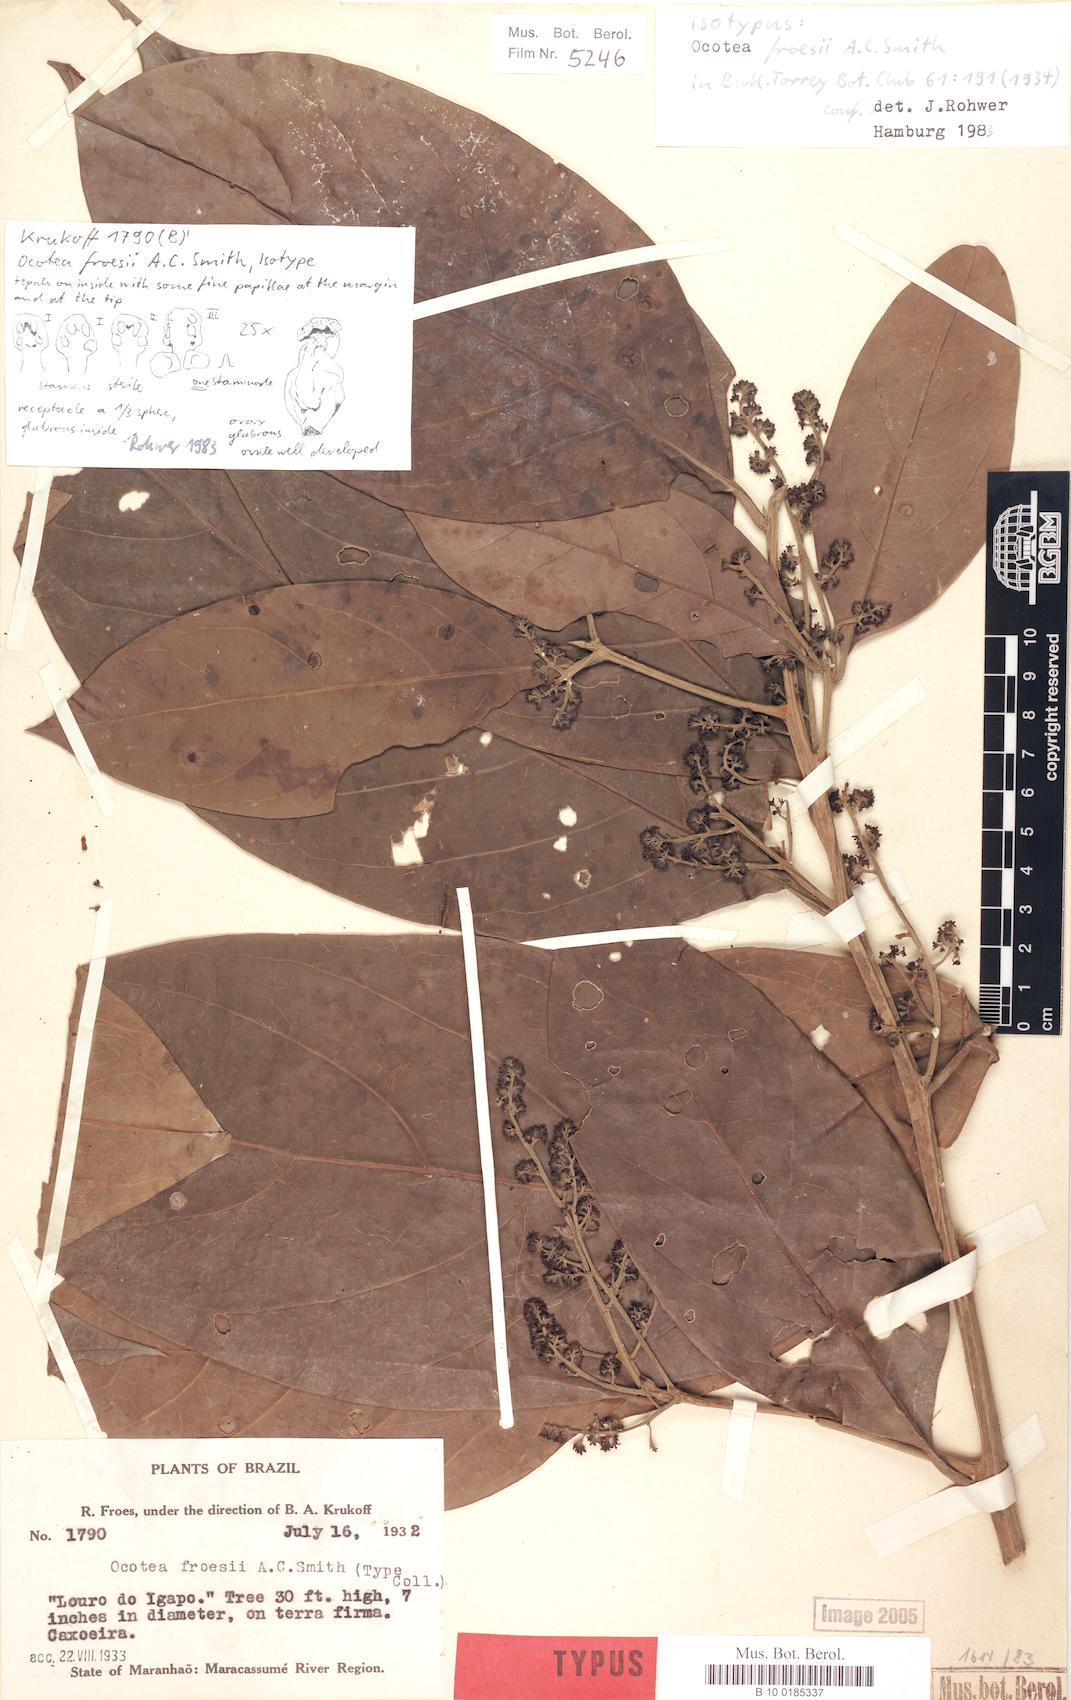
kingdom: Plantae
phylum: Tracheophyta
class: Magnoliopsida
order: Laurales
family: Lauraceae
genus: Ocotea
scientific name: Ocotea froesii
